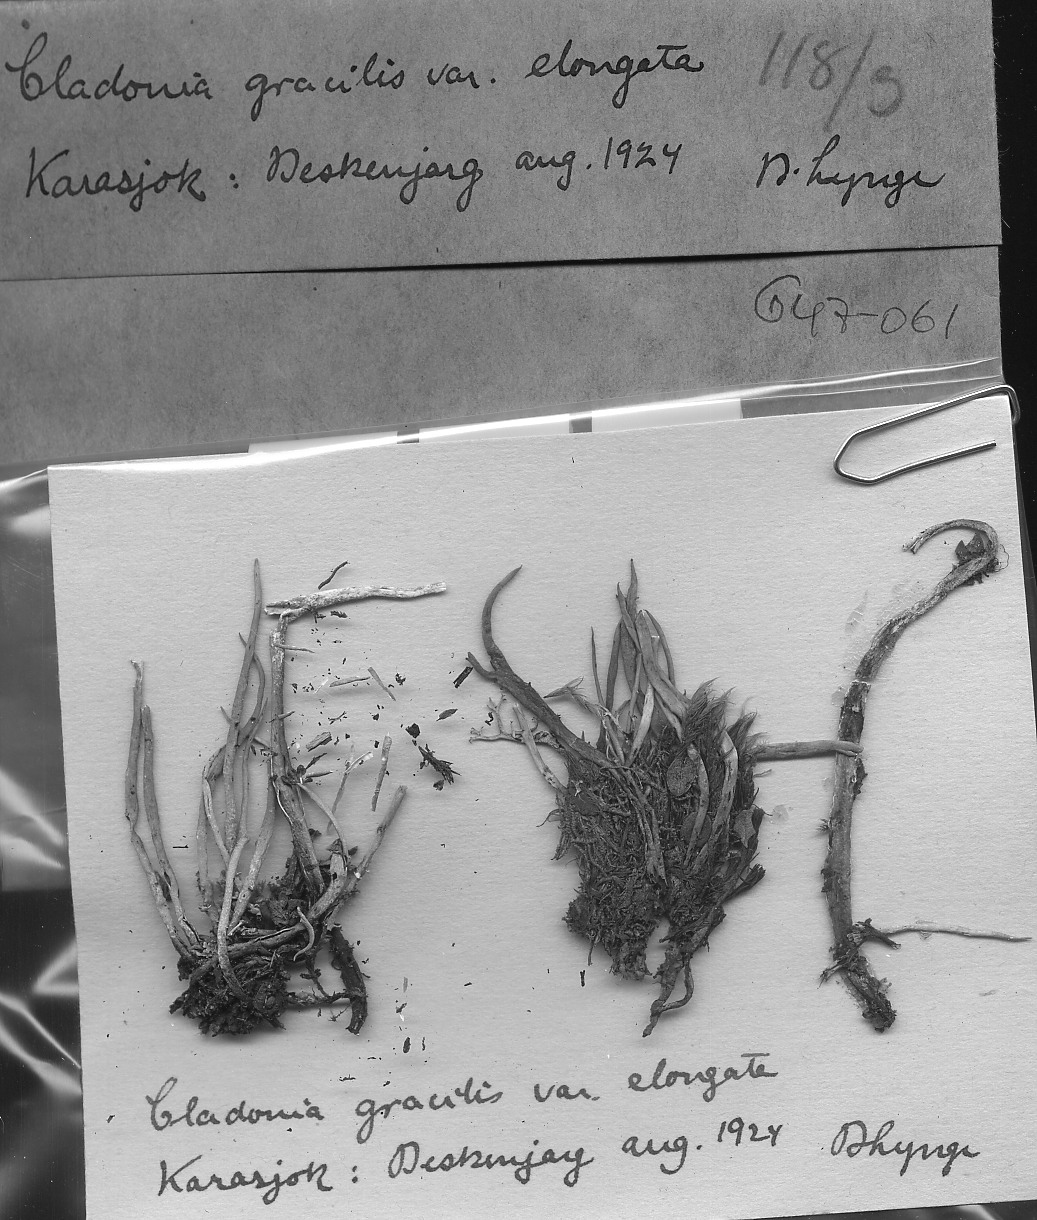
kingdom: Fungi
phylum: Ascomycota
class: Lecanoromycetes
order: Lecanorales
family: Cladoniaceae
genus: Cladonia
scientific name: Cladonia gracilis
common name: Smooth clad lichen
